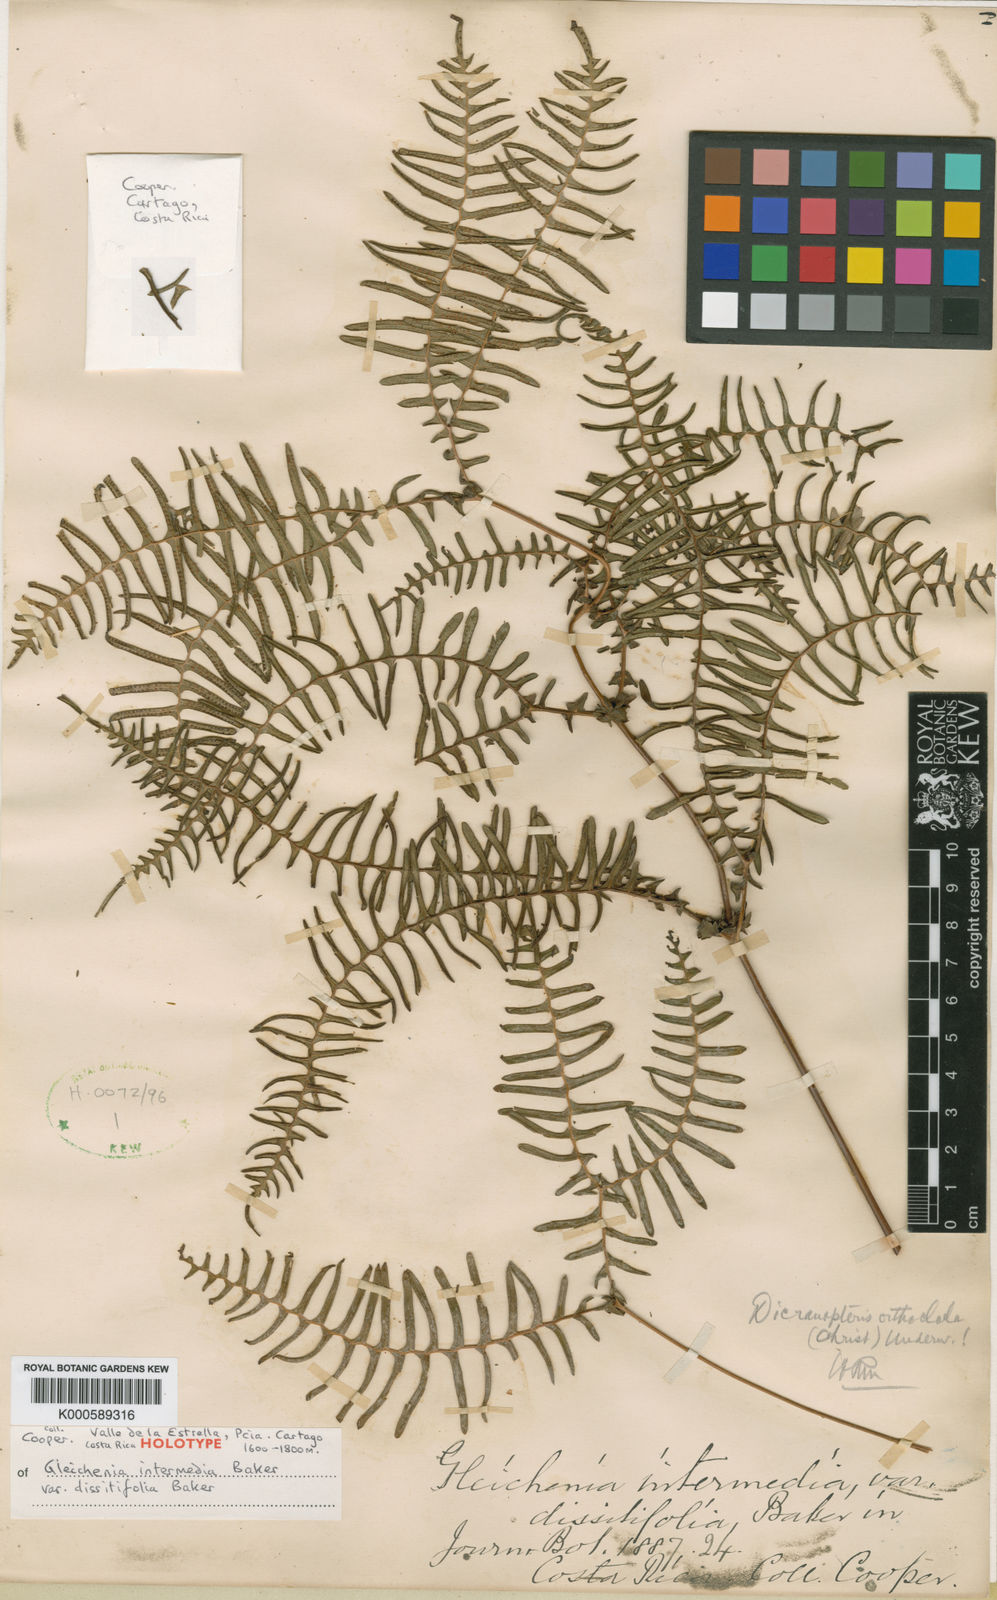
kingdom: Plantae
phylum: Tracheophyta
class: Polypodiopsida
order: Gleicheniales
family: Gleicheniaceae
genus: Sticherus
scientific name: Sticherus intermedius
